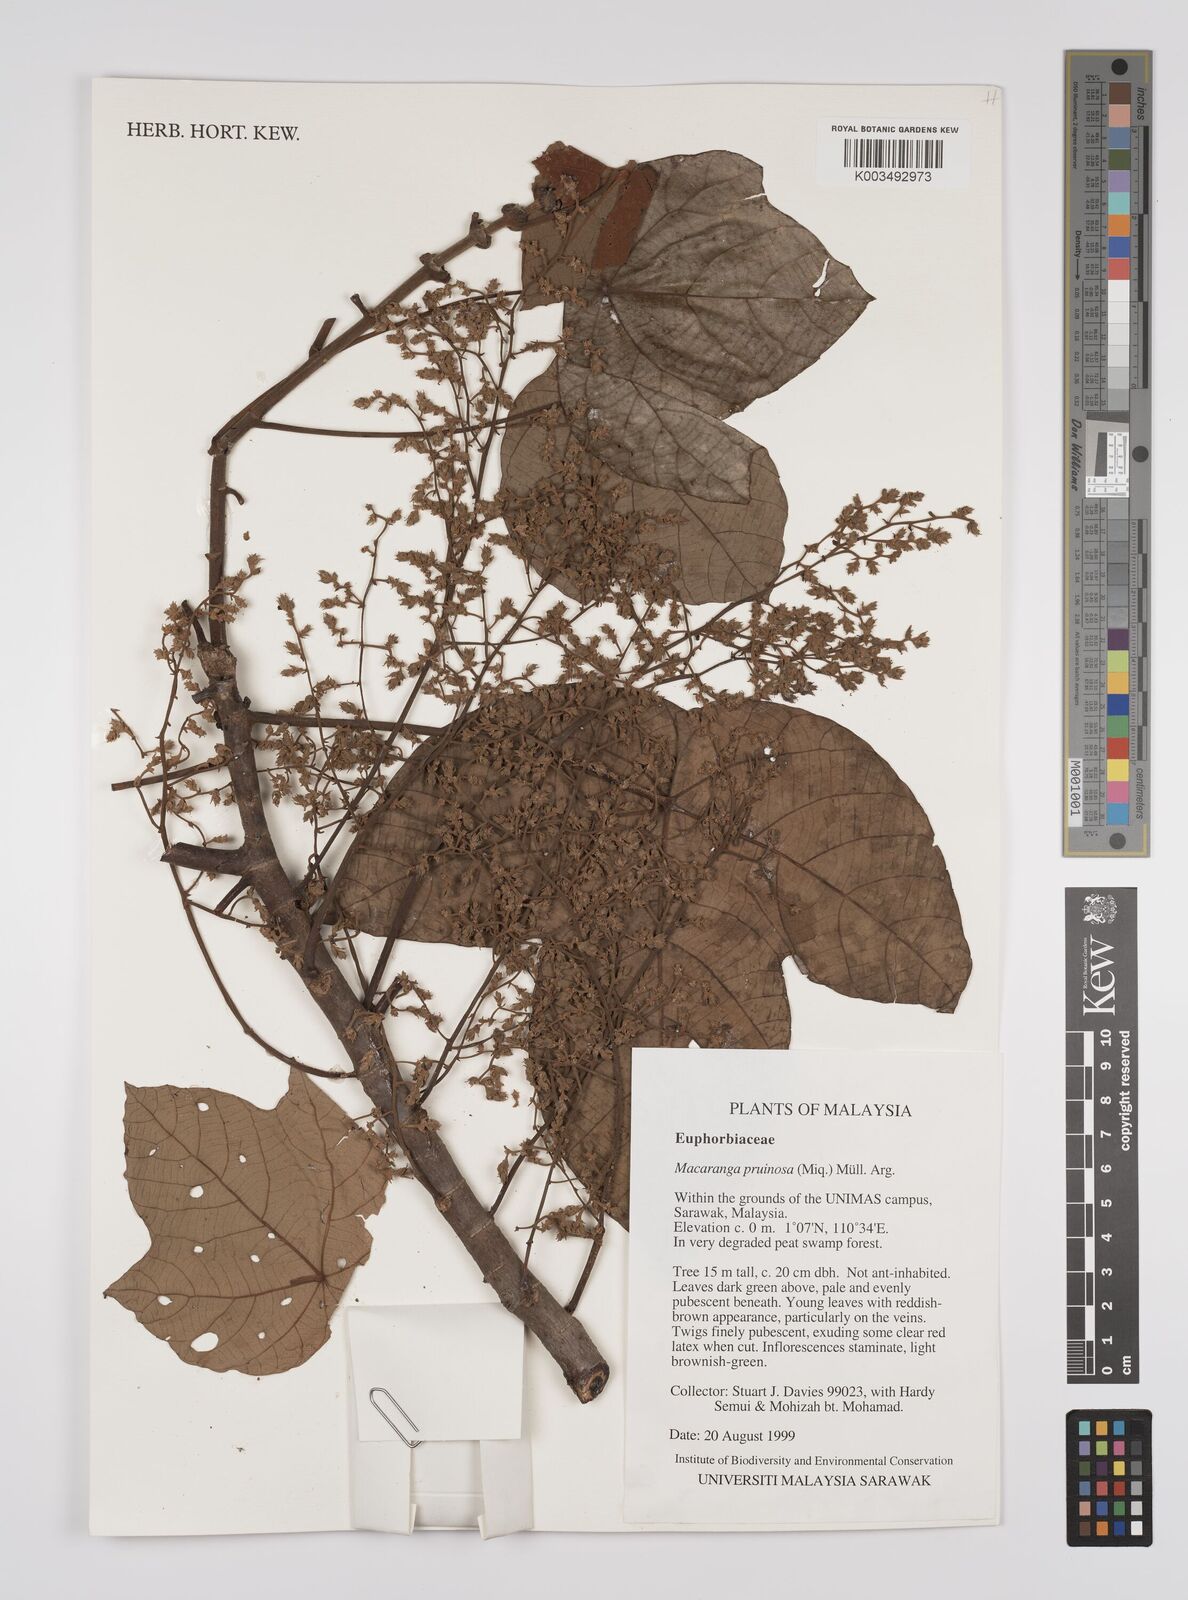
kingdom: Plantae
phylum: Tracheophyta
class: Magnoliopsida
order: Malpighiales
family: Euphorbiaceae
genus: Macaranga
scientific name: Macaranga pruinosa
